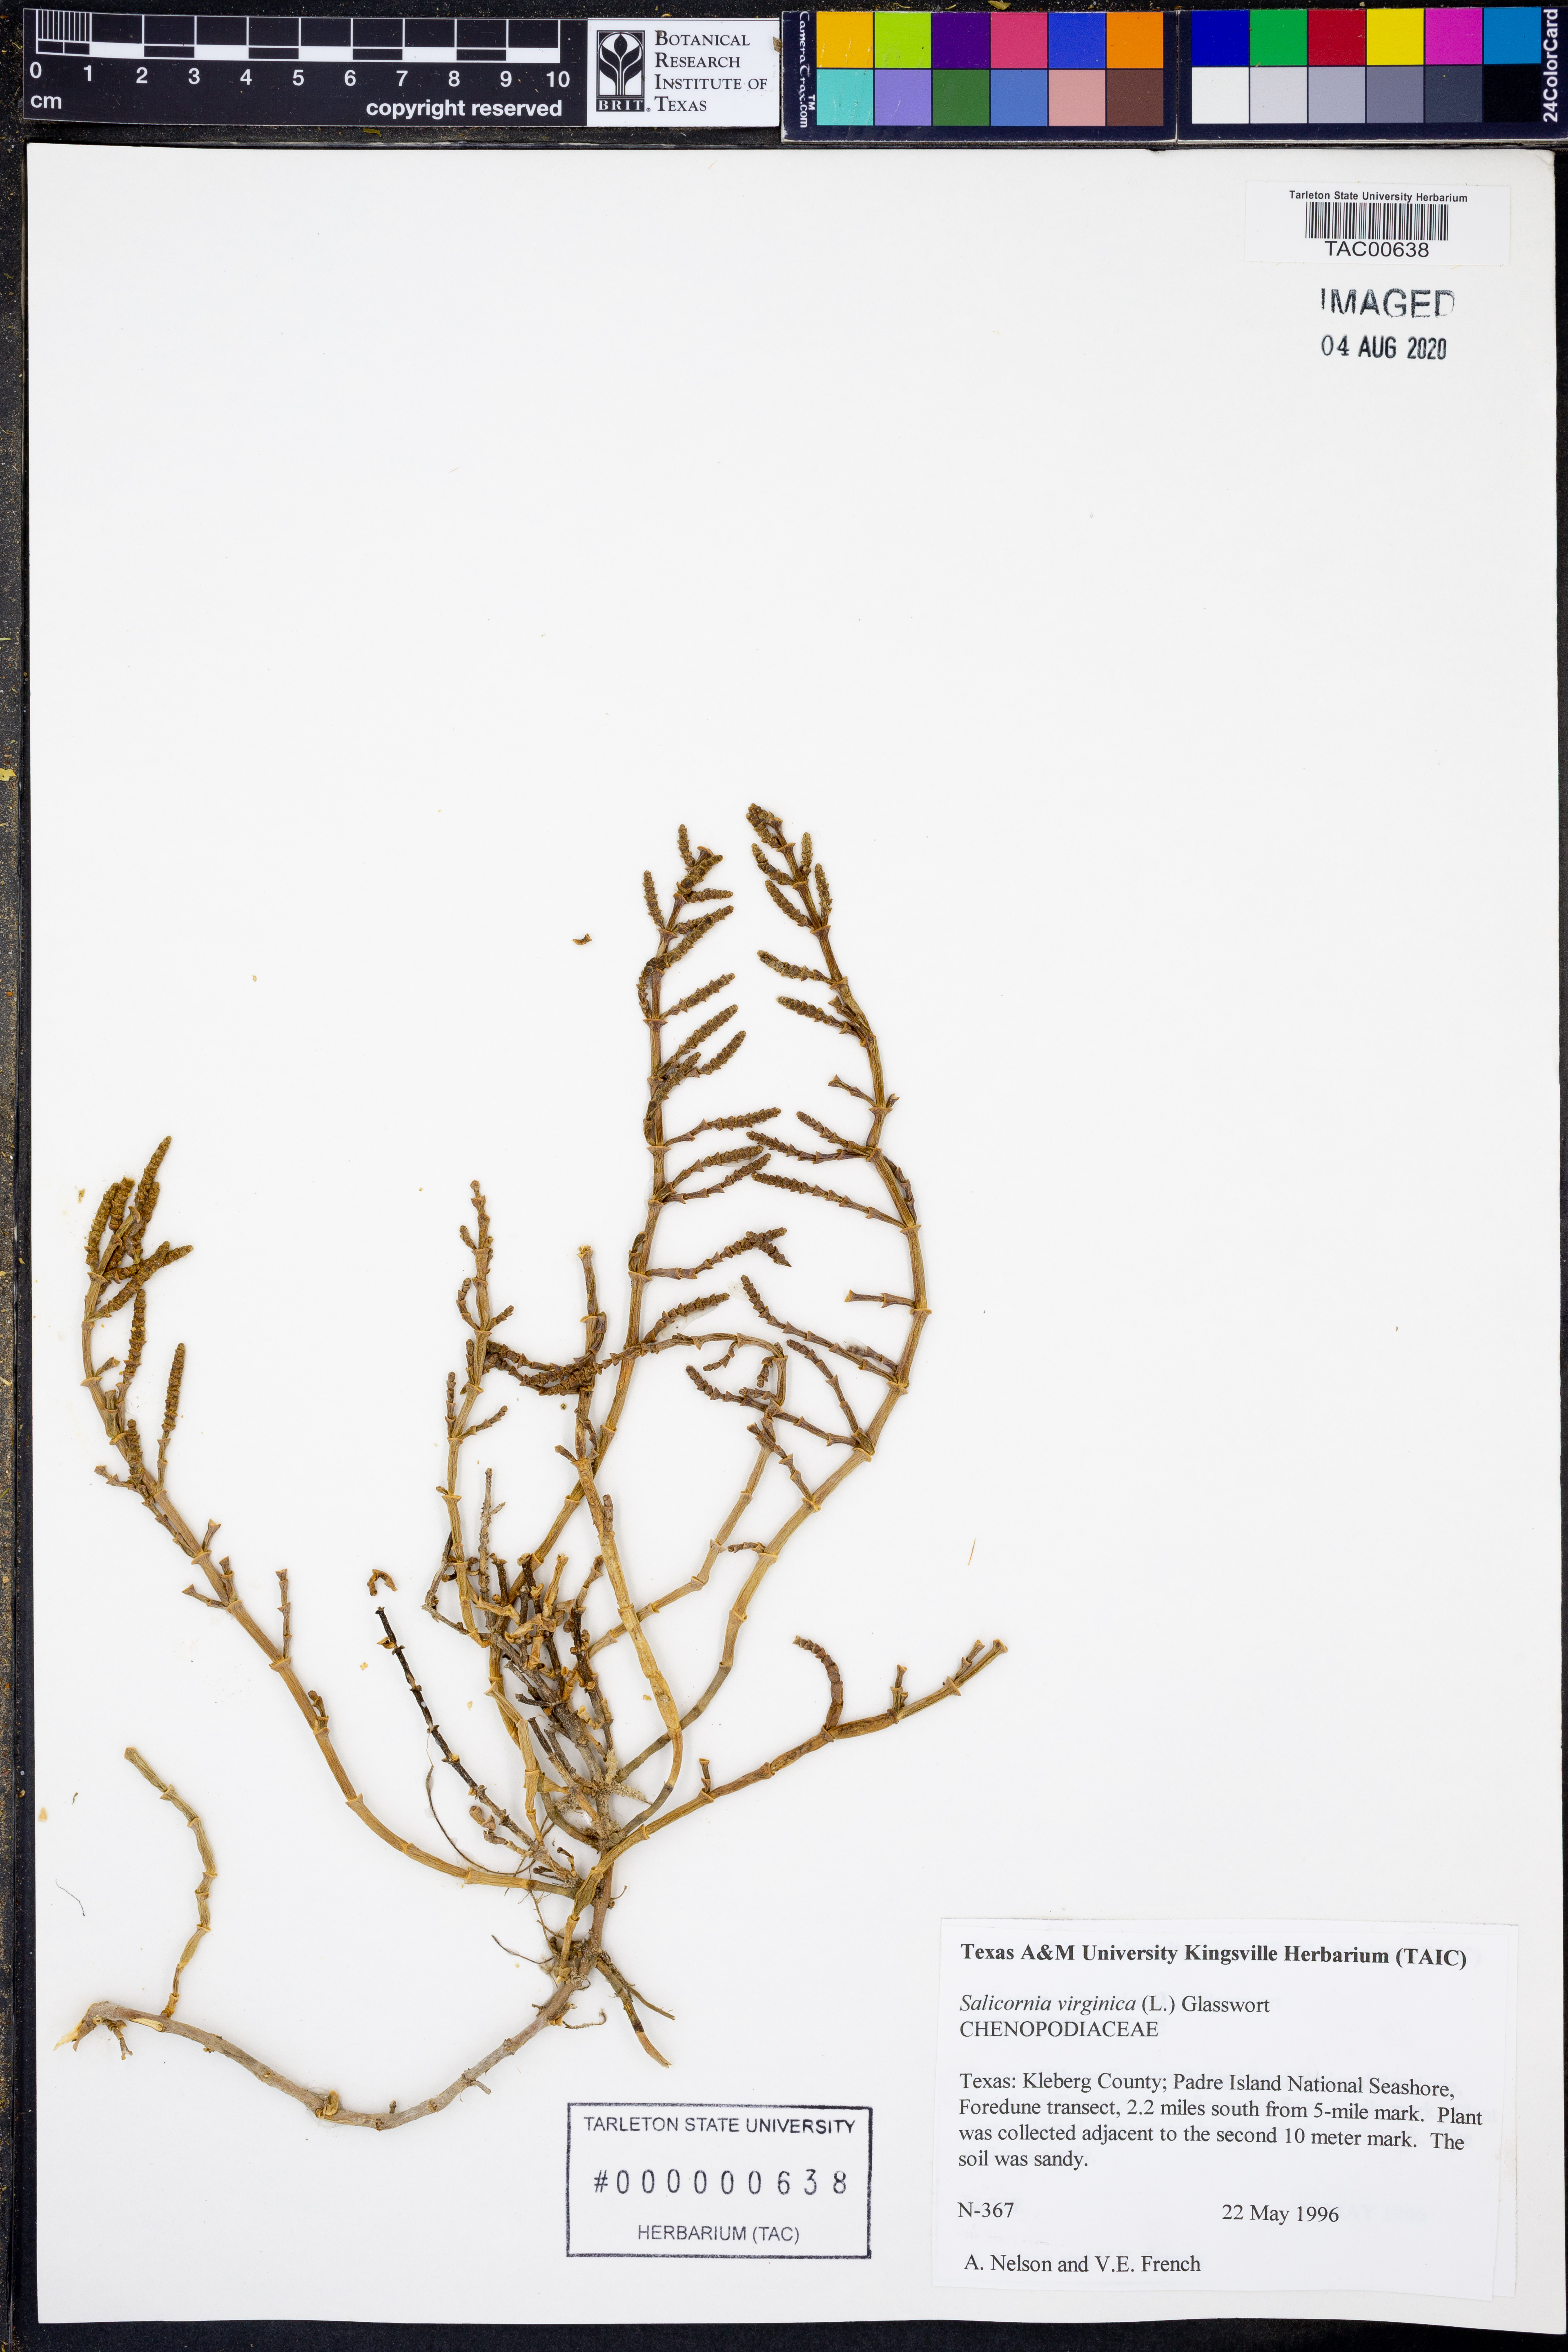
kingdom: Plantae
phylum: Tracheophyta
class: Magnoliopsida
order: Caryophyllales
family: Amaranthaceae
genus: Salicornia
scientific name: Salicornia virginica
